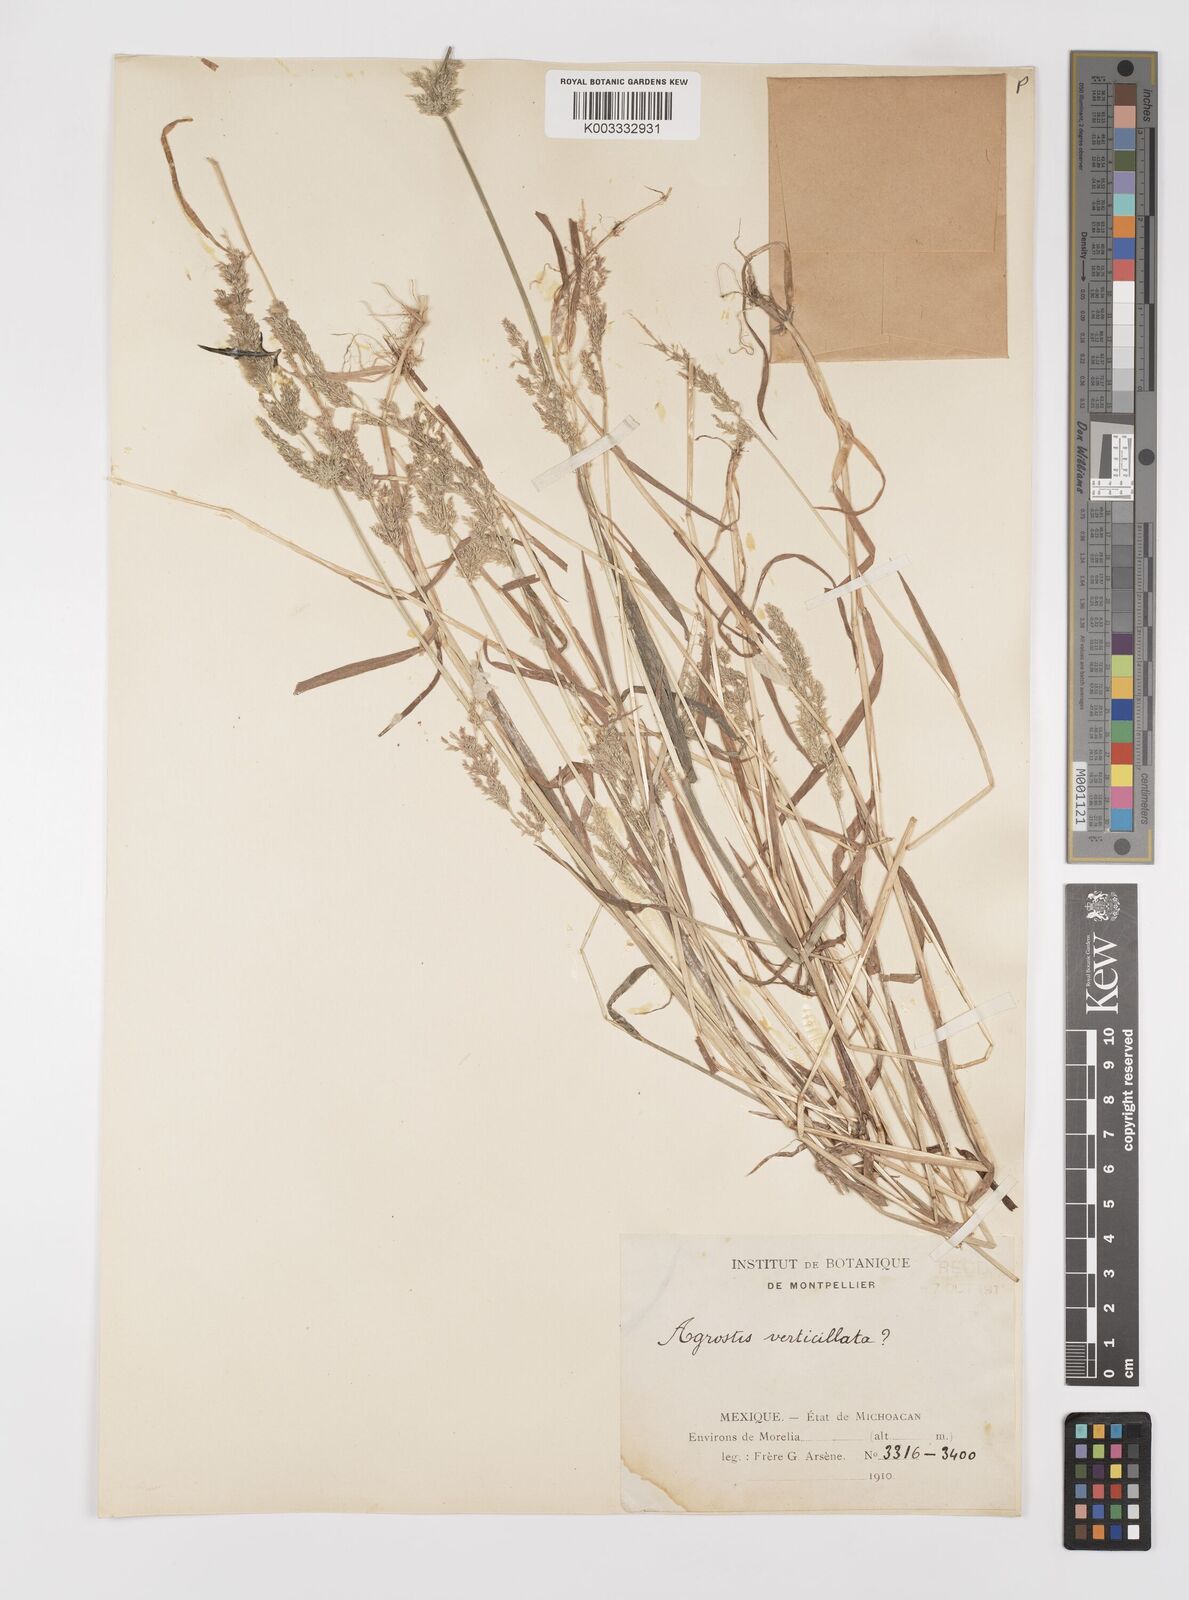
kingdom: Plantae
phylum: Tracheophyta
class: Liliopsida
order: Poales
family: Poaceae
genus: Polypogon
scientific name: Polypogon viridis
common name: Water bent
